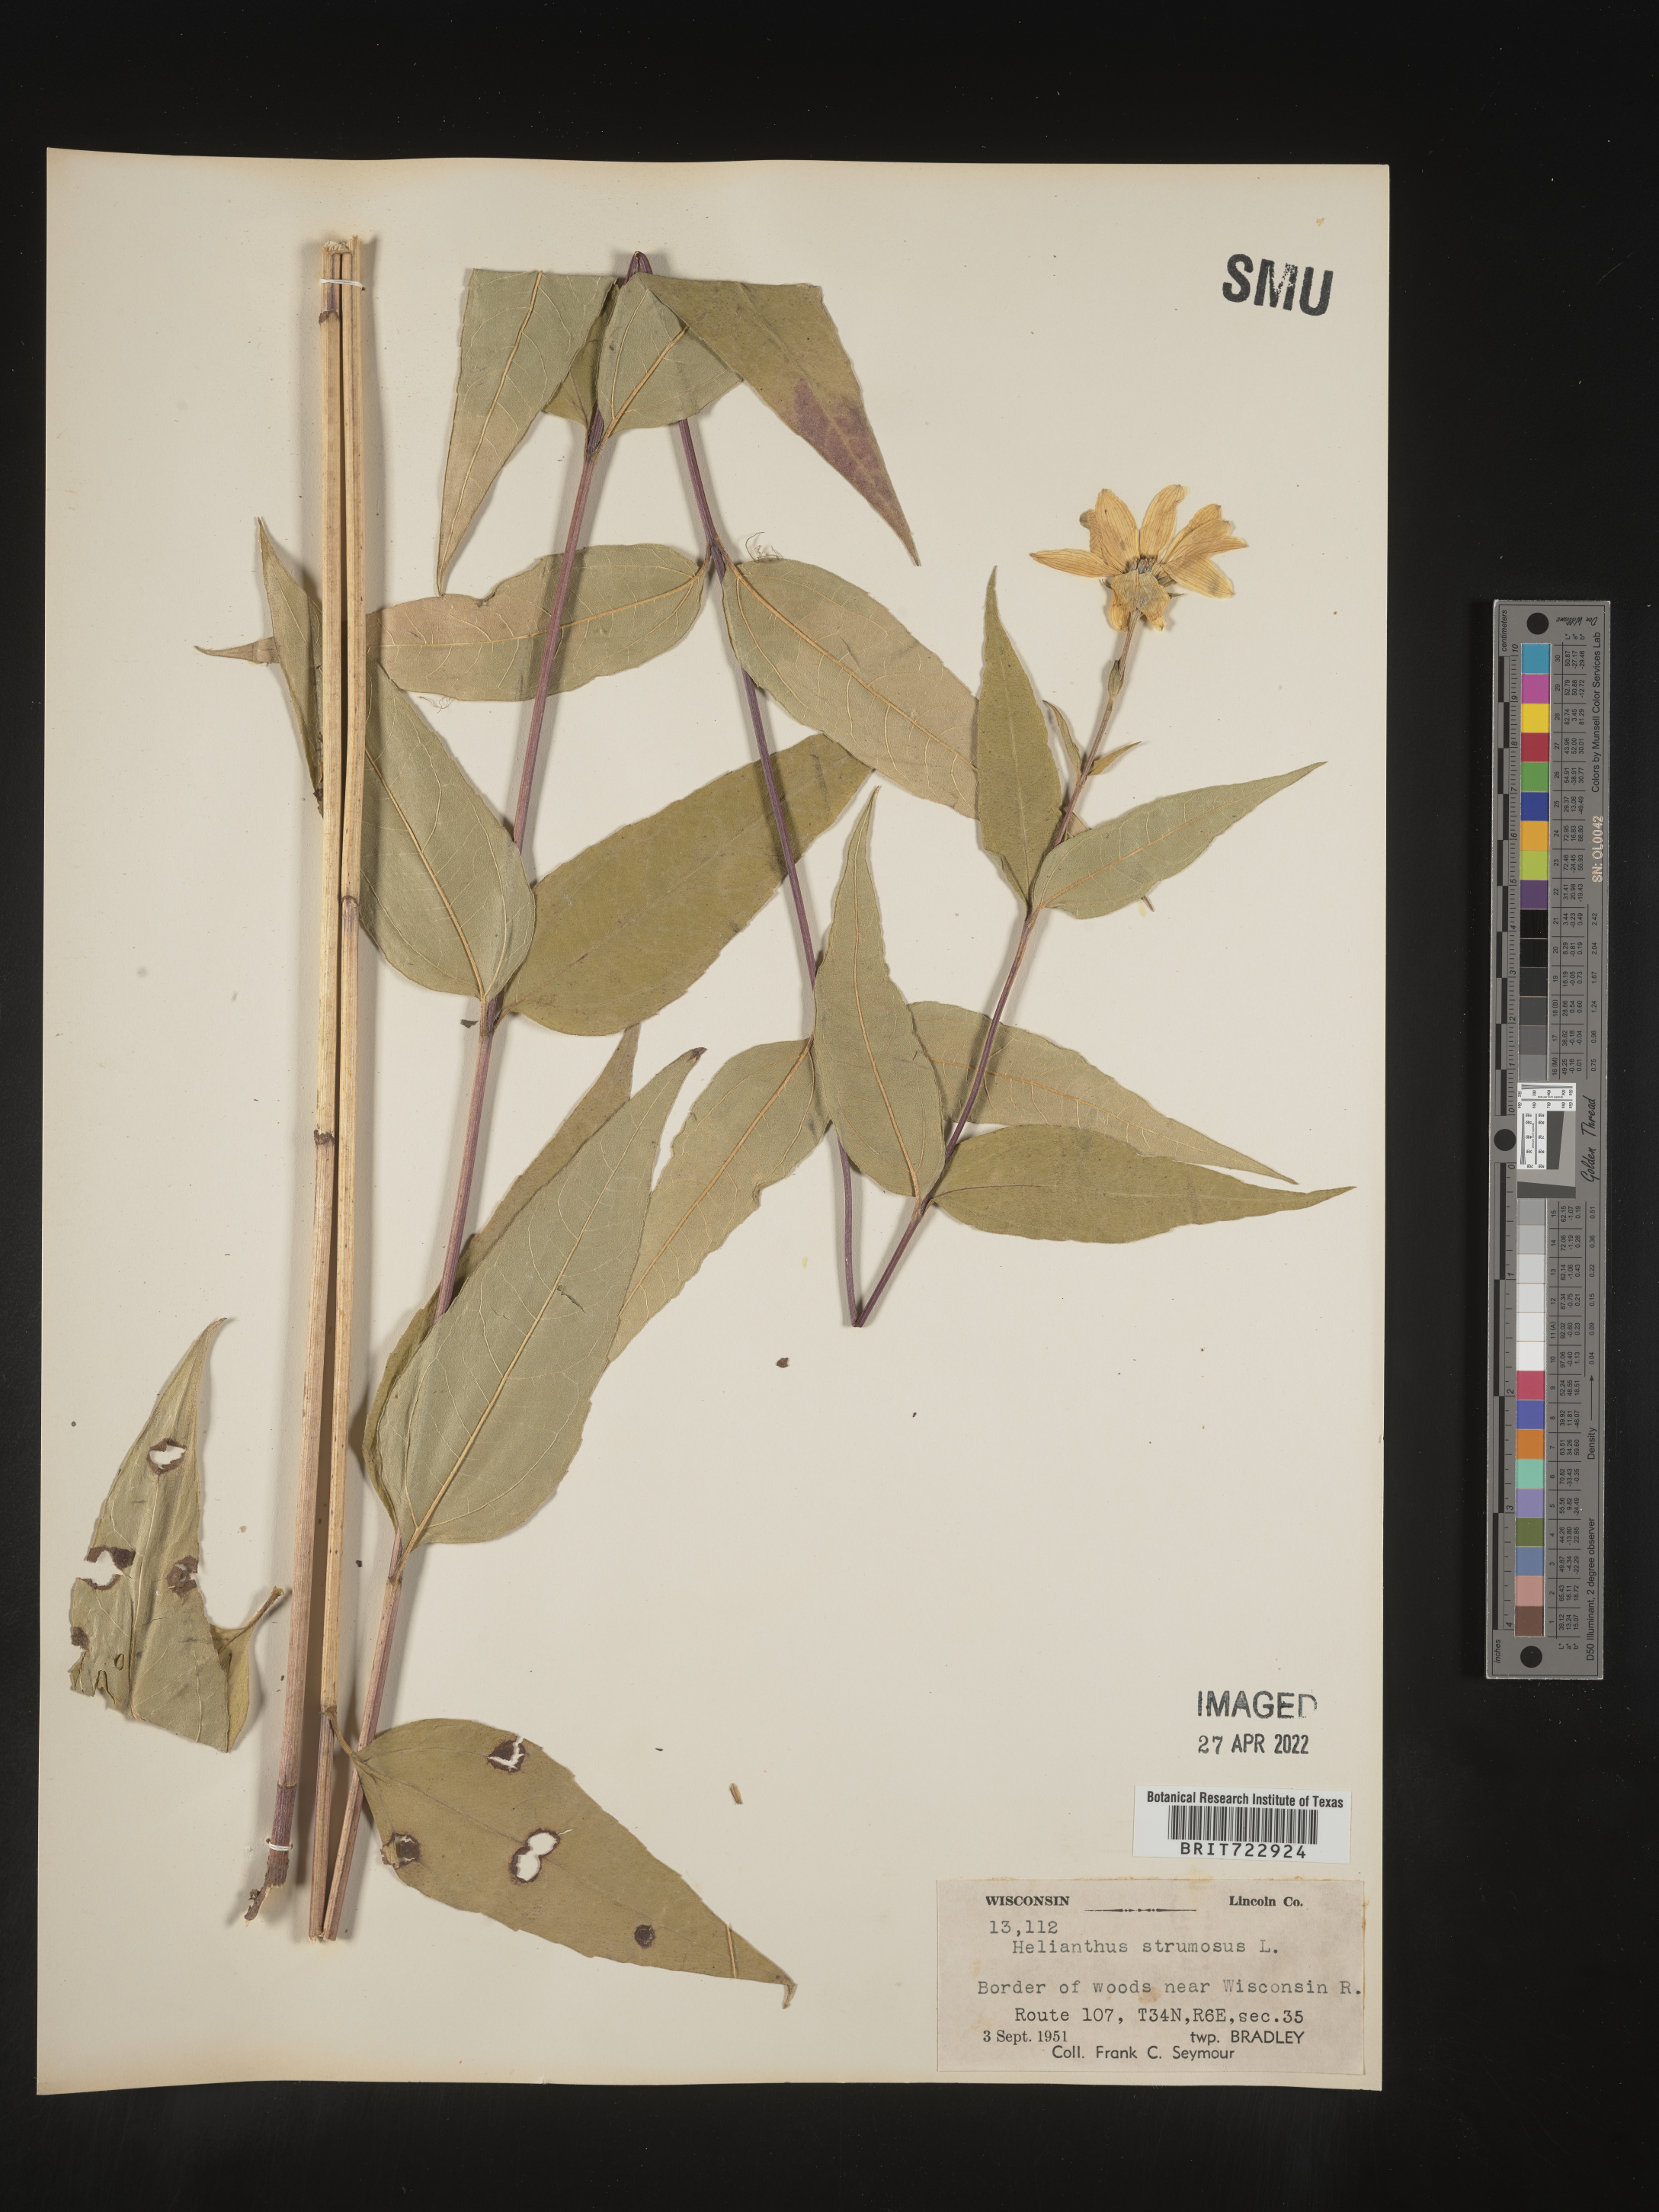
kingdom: Plantae
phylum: Tracheophyta
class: Magnoliopsida
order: Asterales
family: Asteraceae
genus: Helianthus
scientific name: Helianthus strumosus
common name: Pale-leaved sunflower
